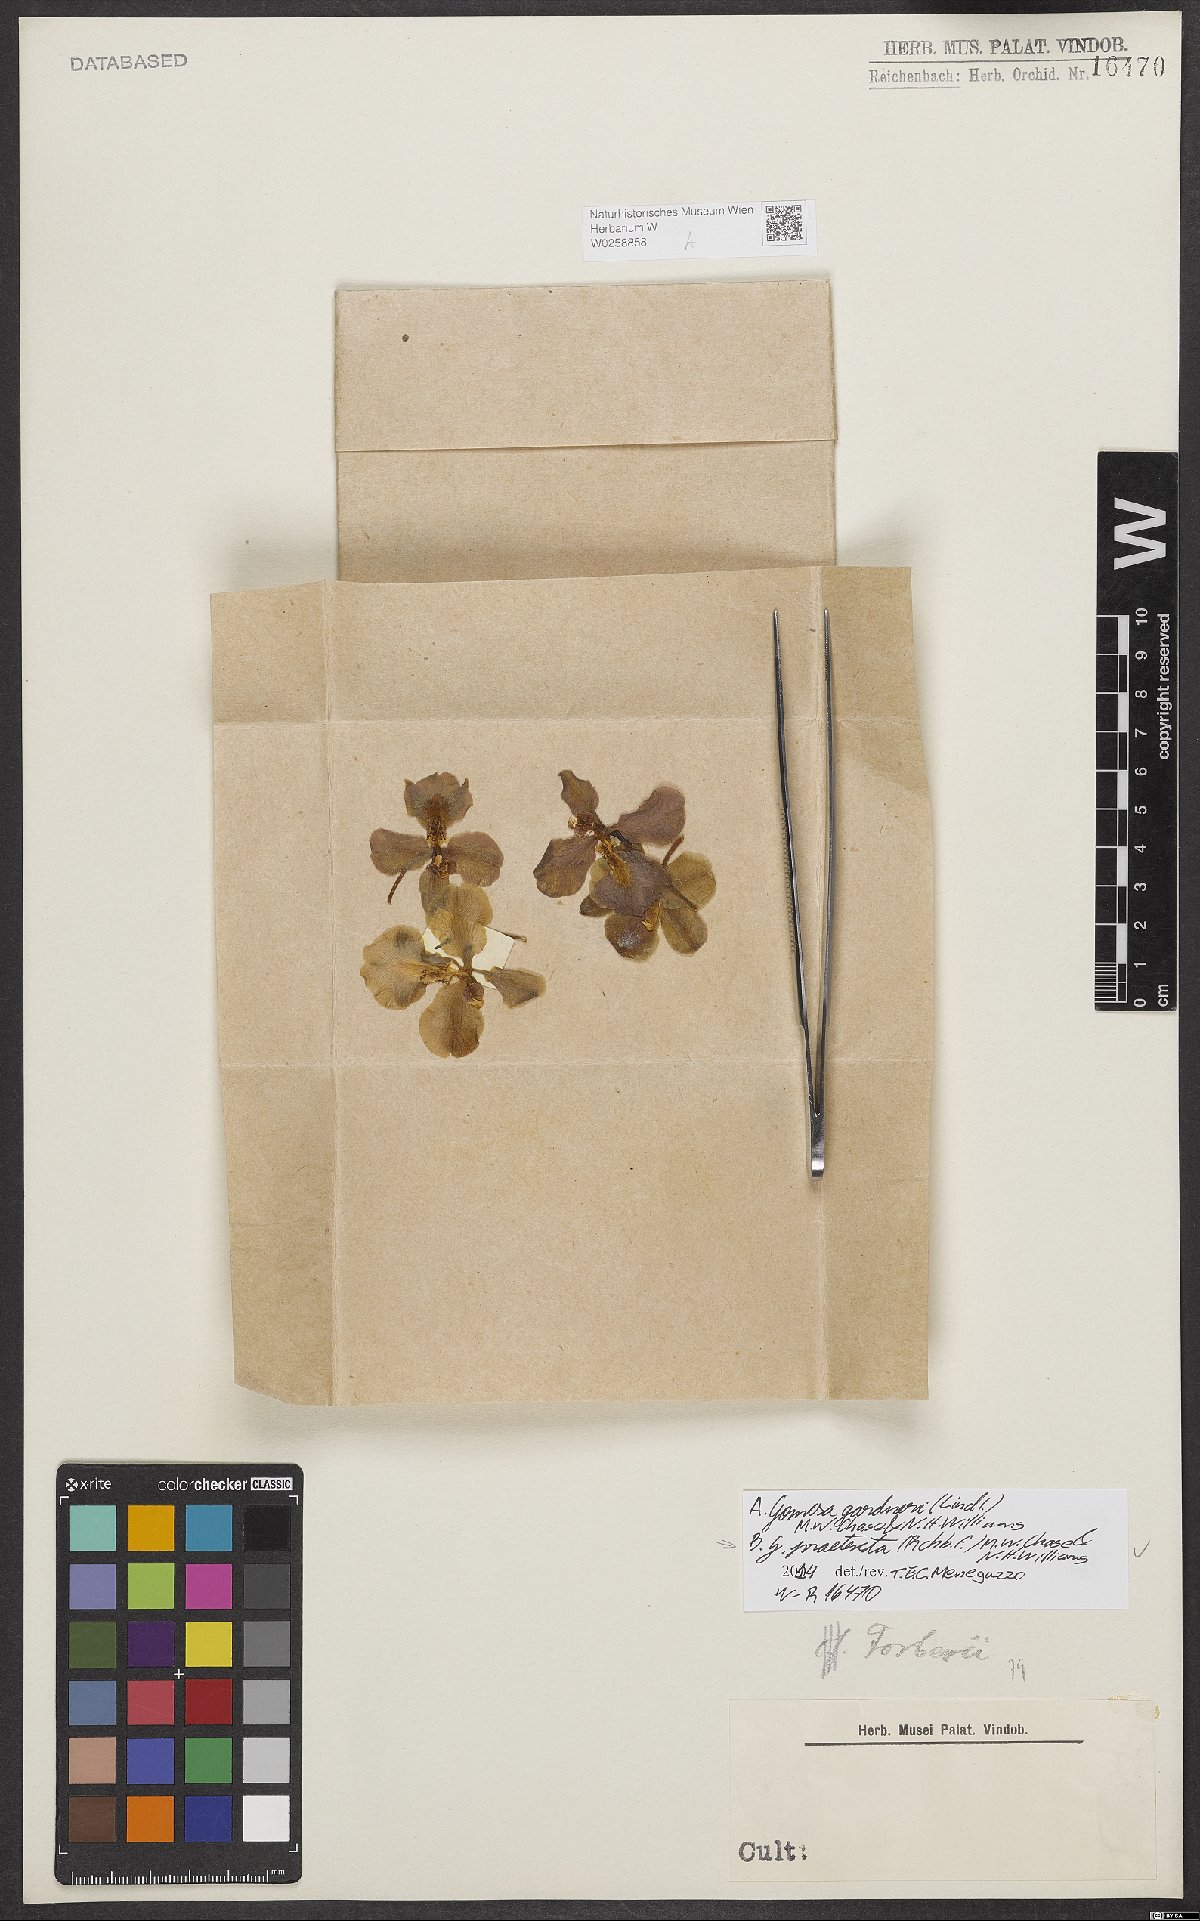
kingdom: Plantae
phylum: Tracheophyta
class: Liliopsida
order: Asparagales
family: Orchidaceae
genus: Gomesa
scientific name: Gomesa praetexta
